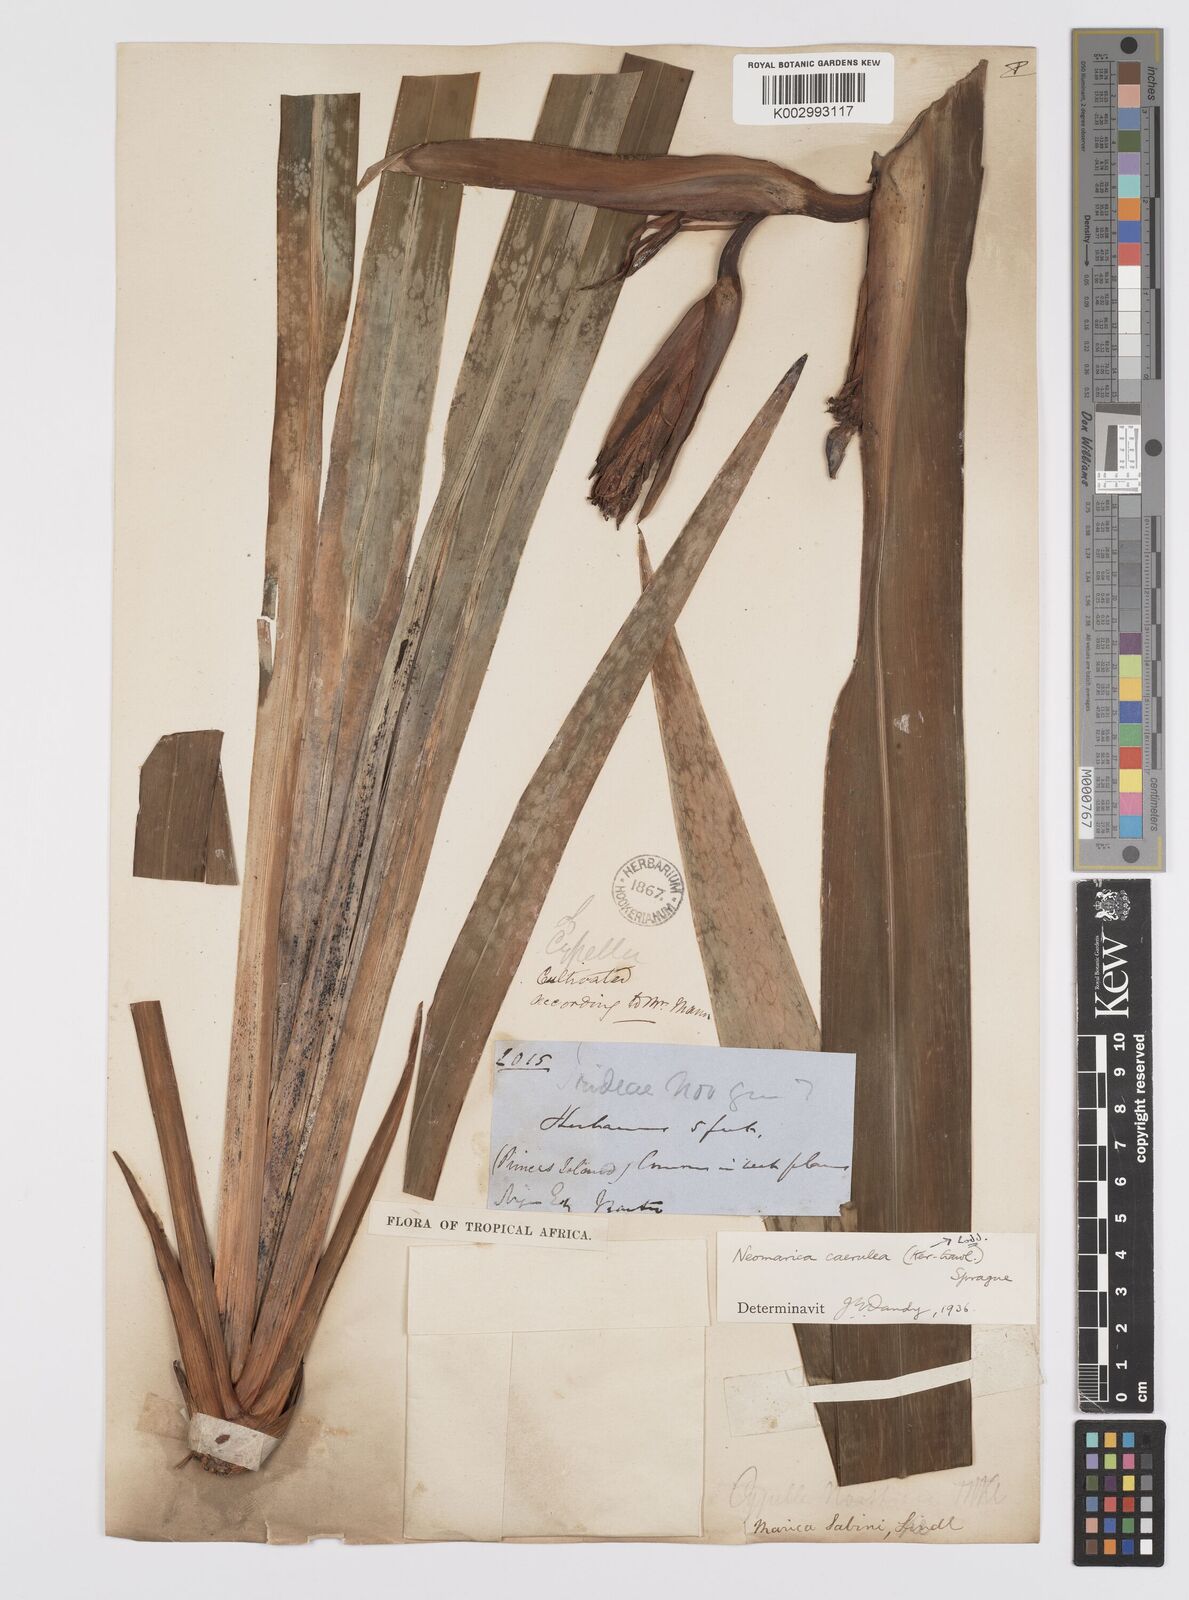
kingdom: Plantae
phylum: Tracheophyta
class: Liliopsida
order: Asparagales
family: Iridaceae
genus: Trimezia
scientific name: Trimezia coerulea
